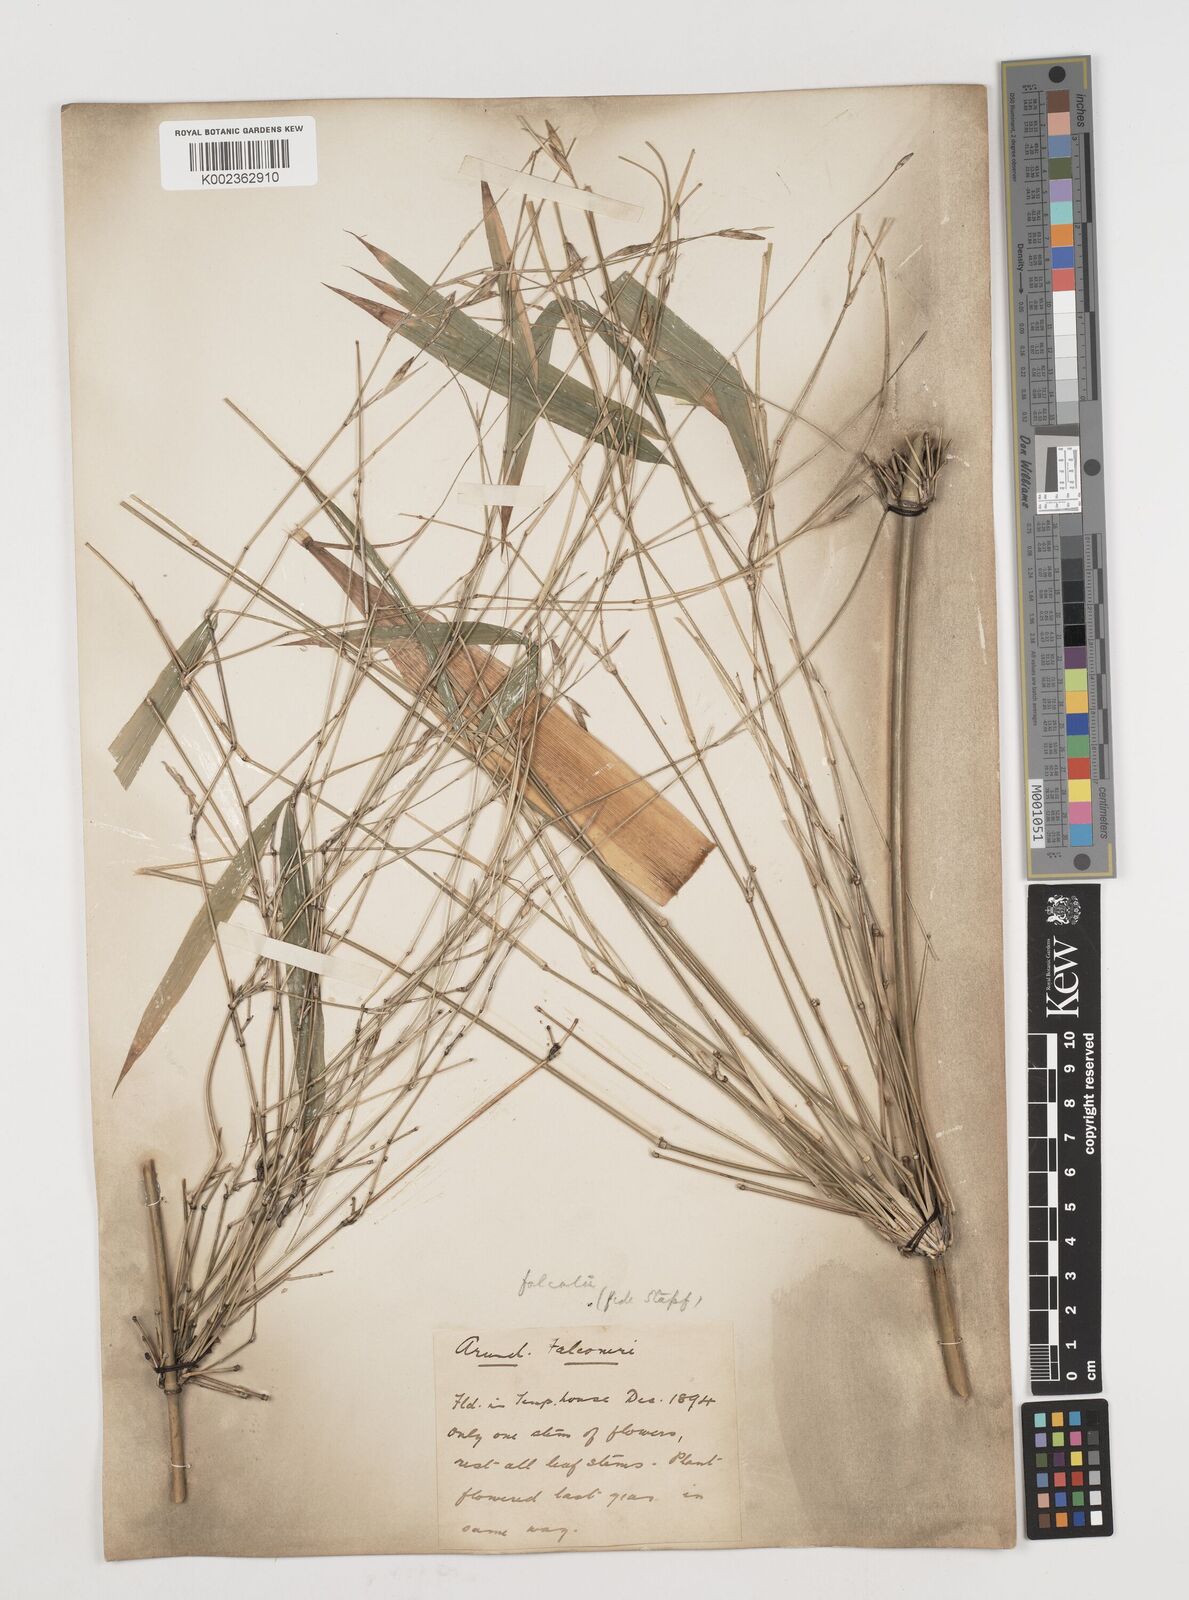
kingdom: Plantae
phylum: Tracheophyta
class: Liliopsida
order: Poales
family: Poaceae
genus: Drepanostachyum
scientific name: Drepanostachyum falcatum
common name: Himalayan bamboo
